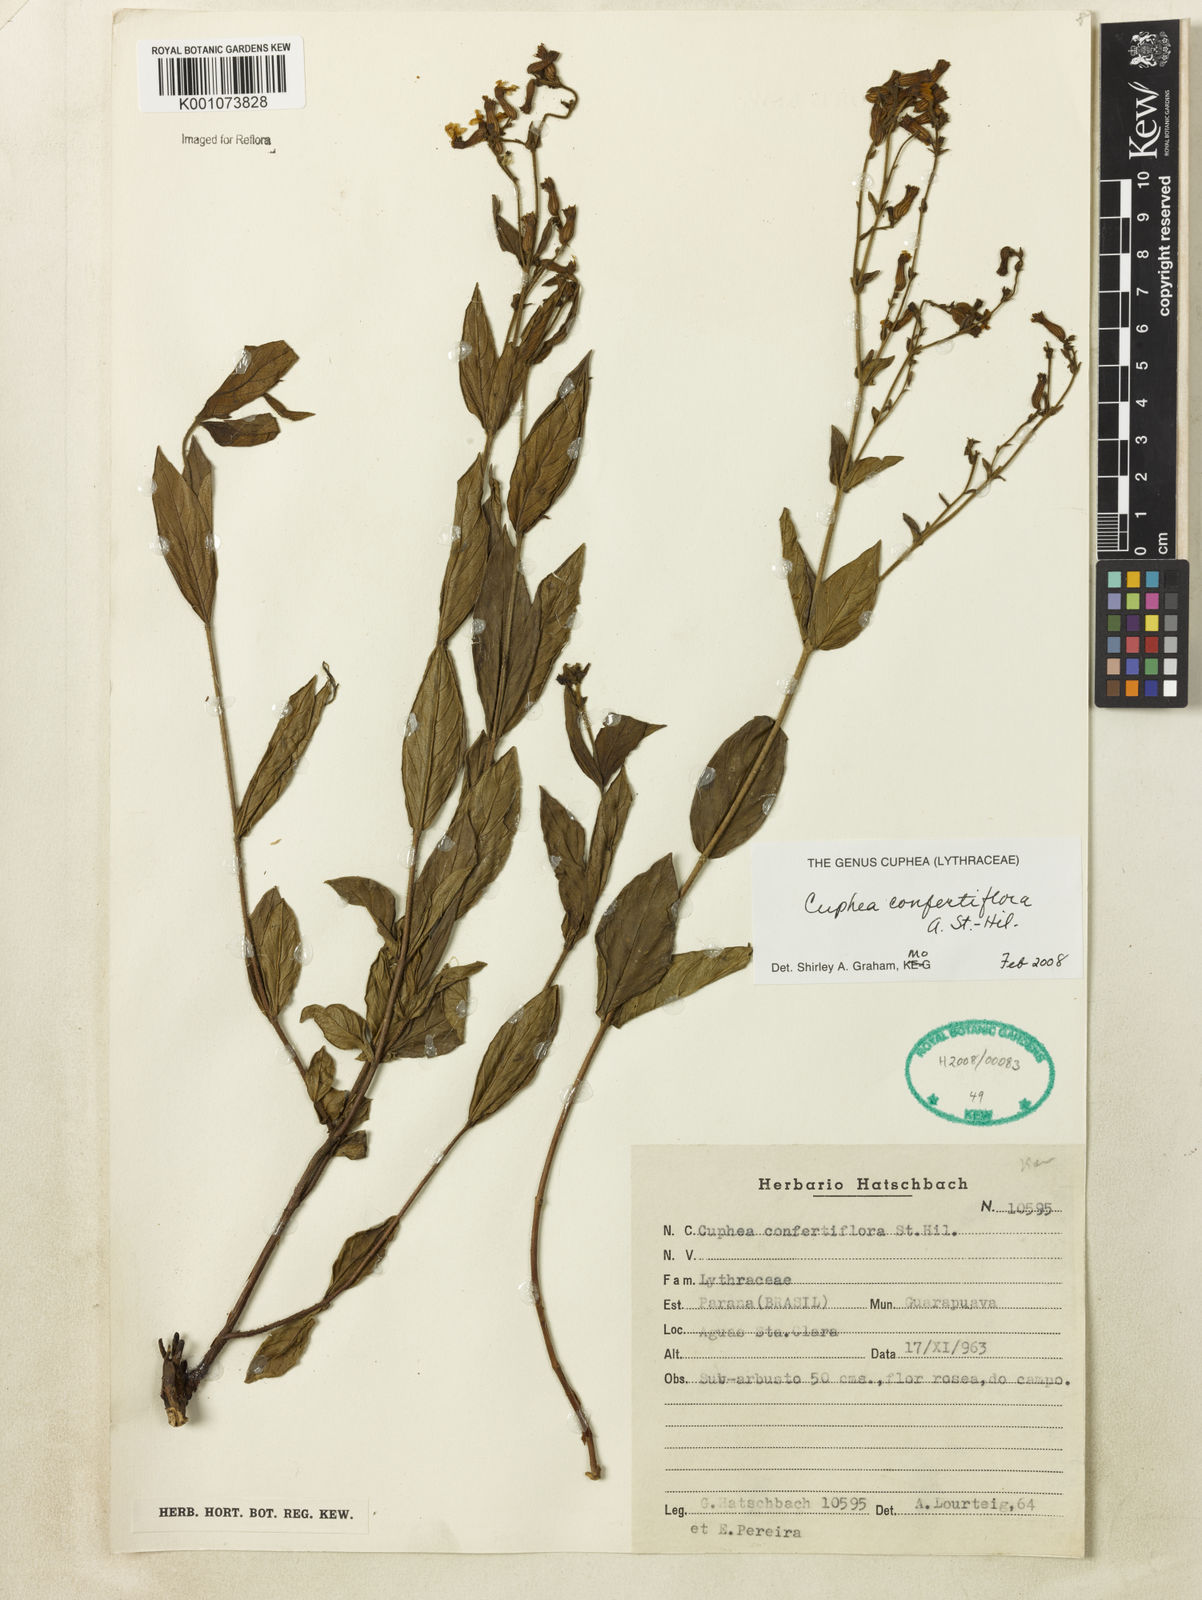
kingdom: Plantae
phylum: Tracheophyta
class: Magnoliopsida
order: Myrtales
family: Lythraceae
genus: Cuphea
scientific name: Cuphea confertiflora
